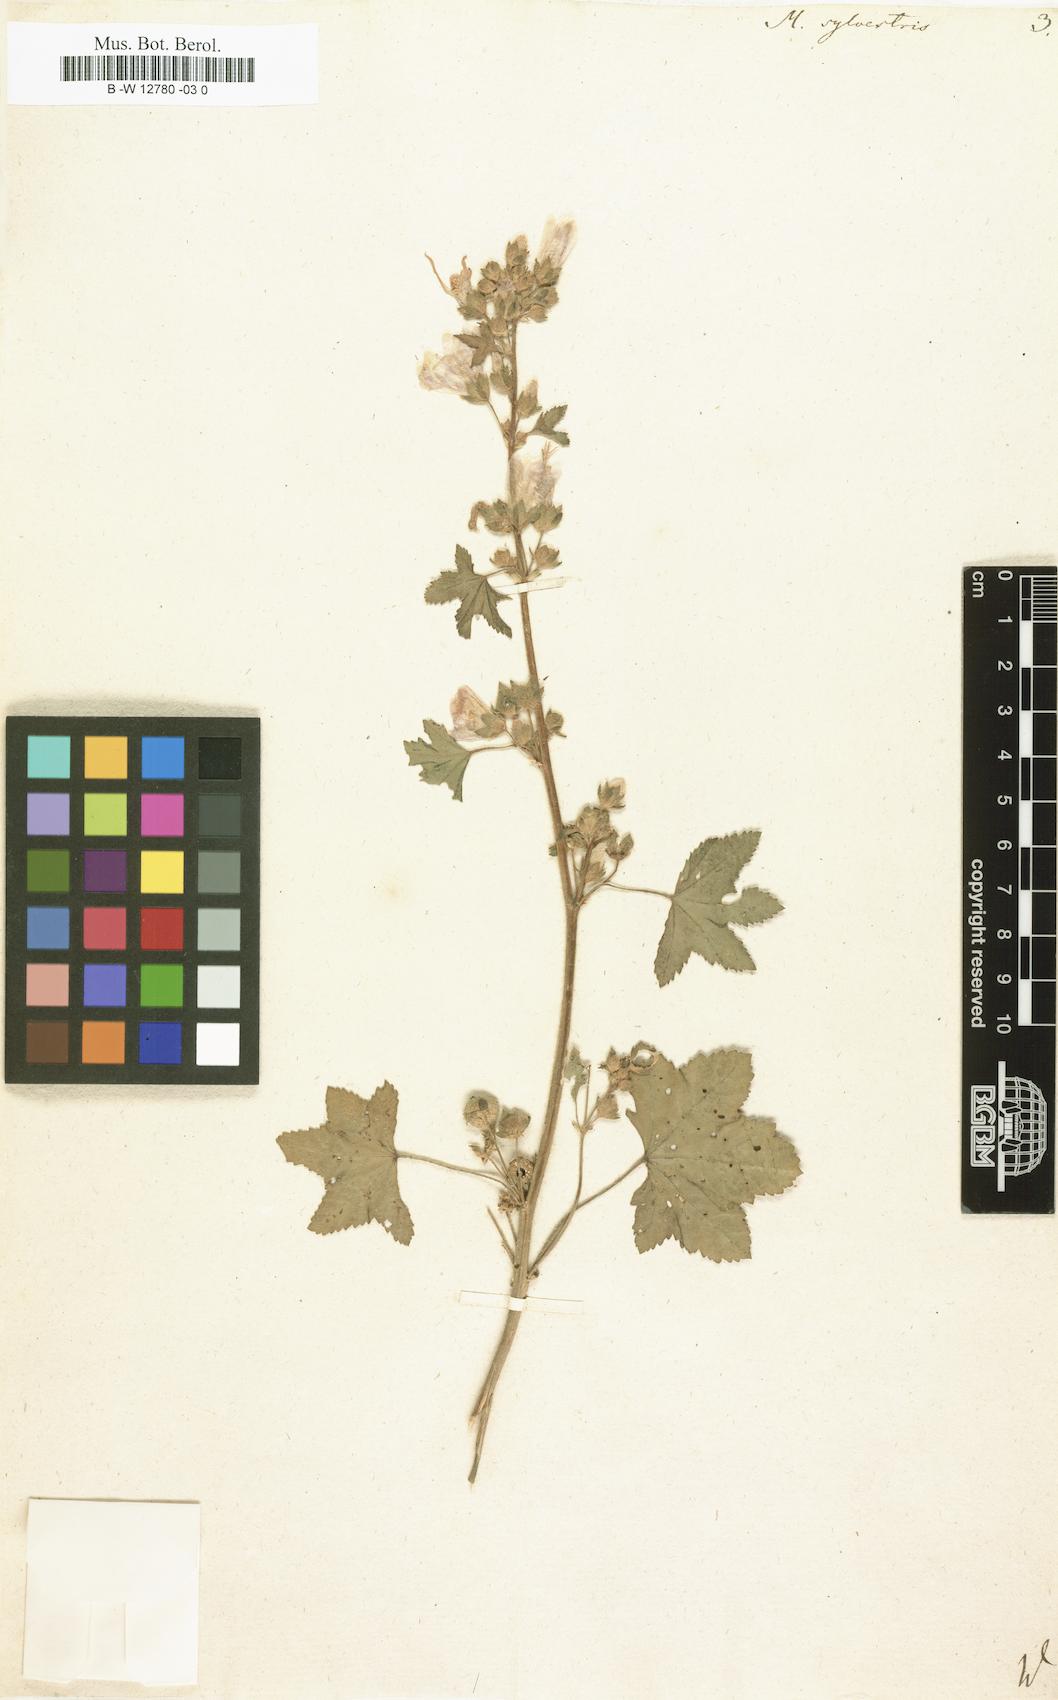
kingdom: Plantae
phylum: Tracheophyta
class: Magnoliopsida
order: Malvales
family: Malvaceae
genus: Malva
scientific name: Malva sylvestris
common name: Common mallow
